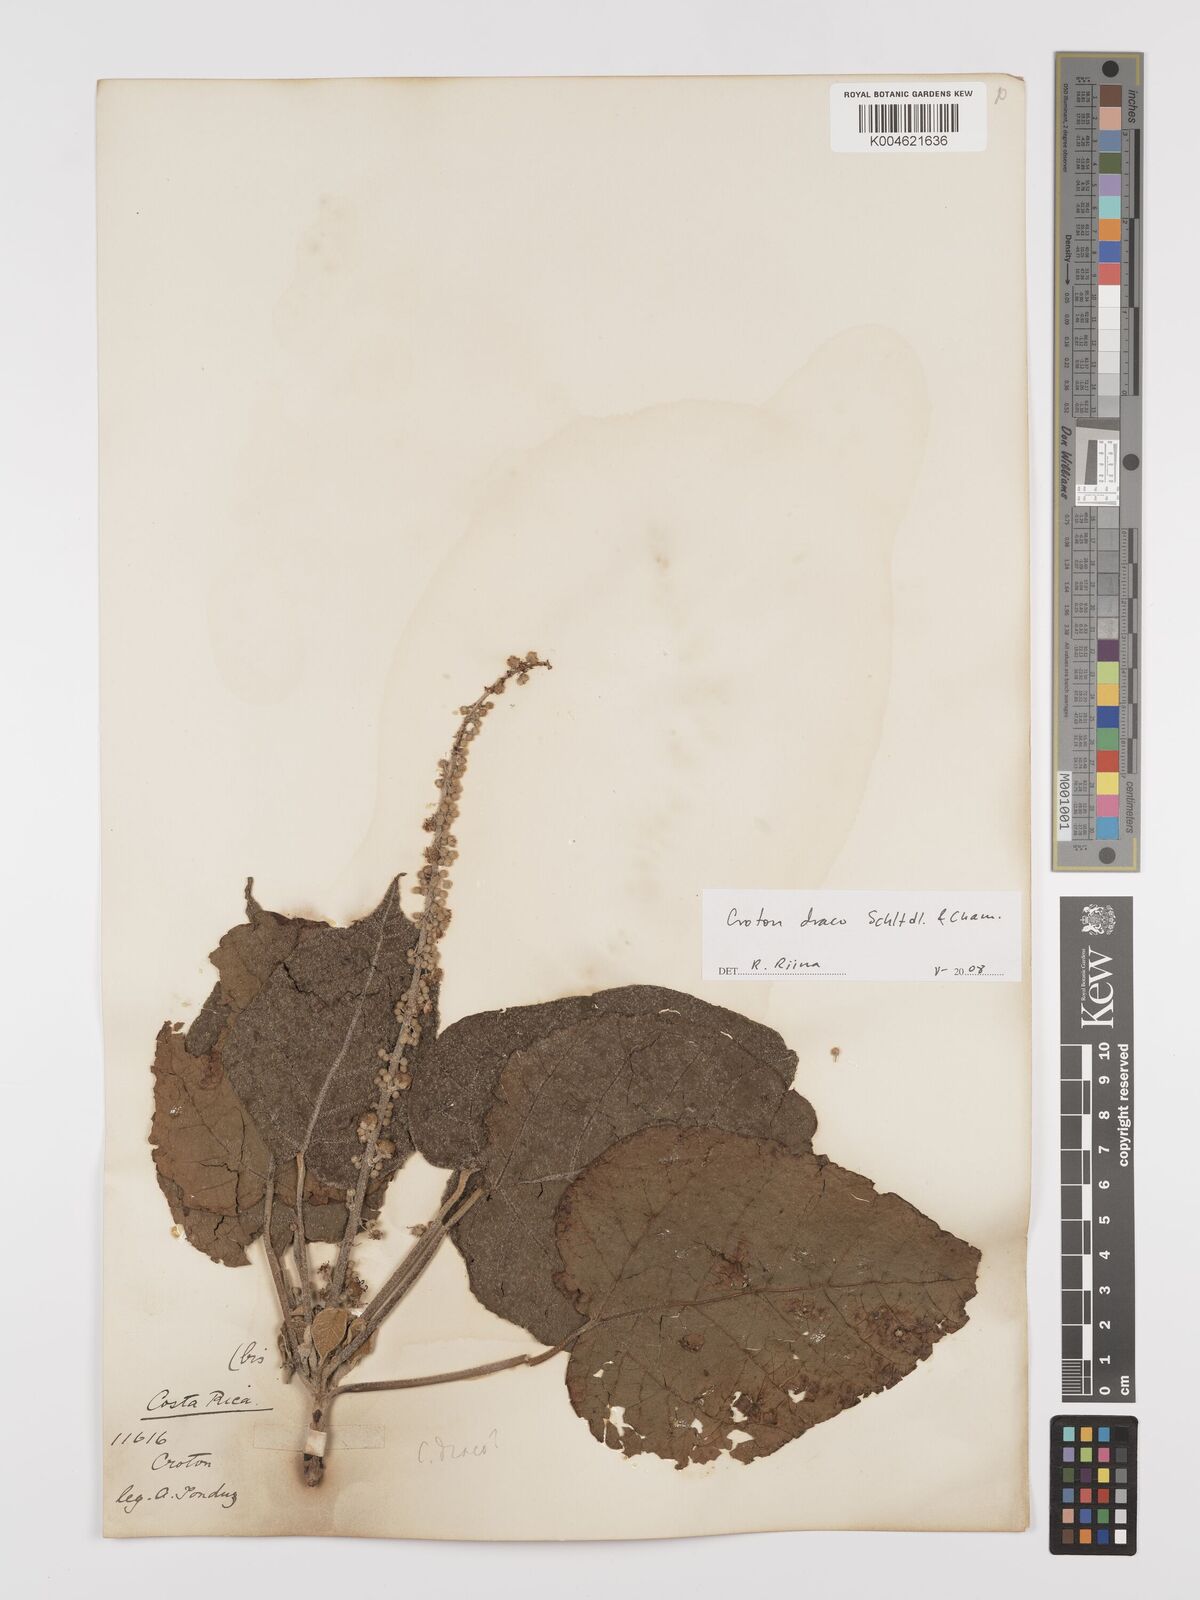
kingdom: Plantae
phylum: Tracheophyta
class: Magnoliopsida
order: Malpighiales
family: Euphorbiaceae
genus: Croton
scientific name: Croton draco
